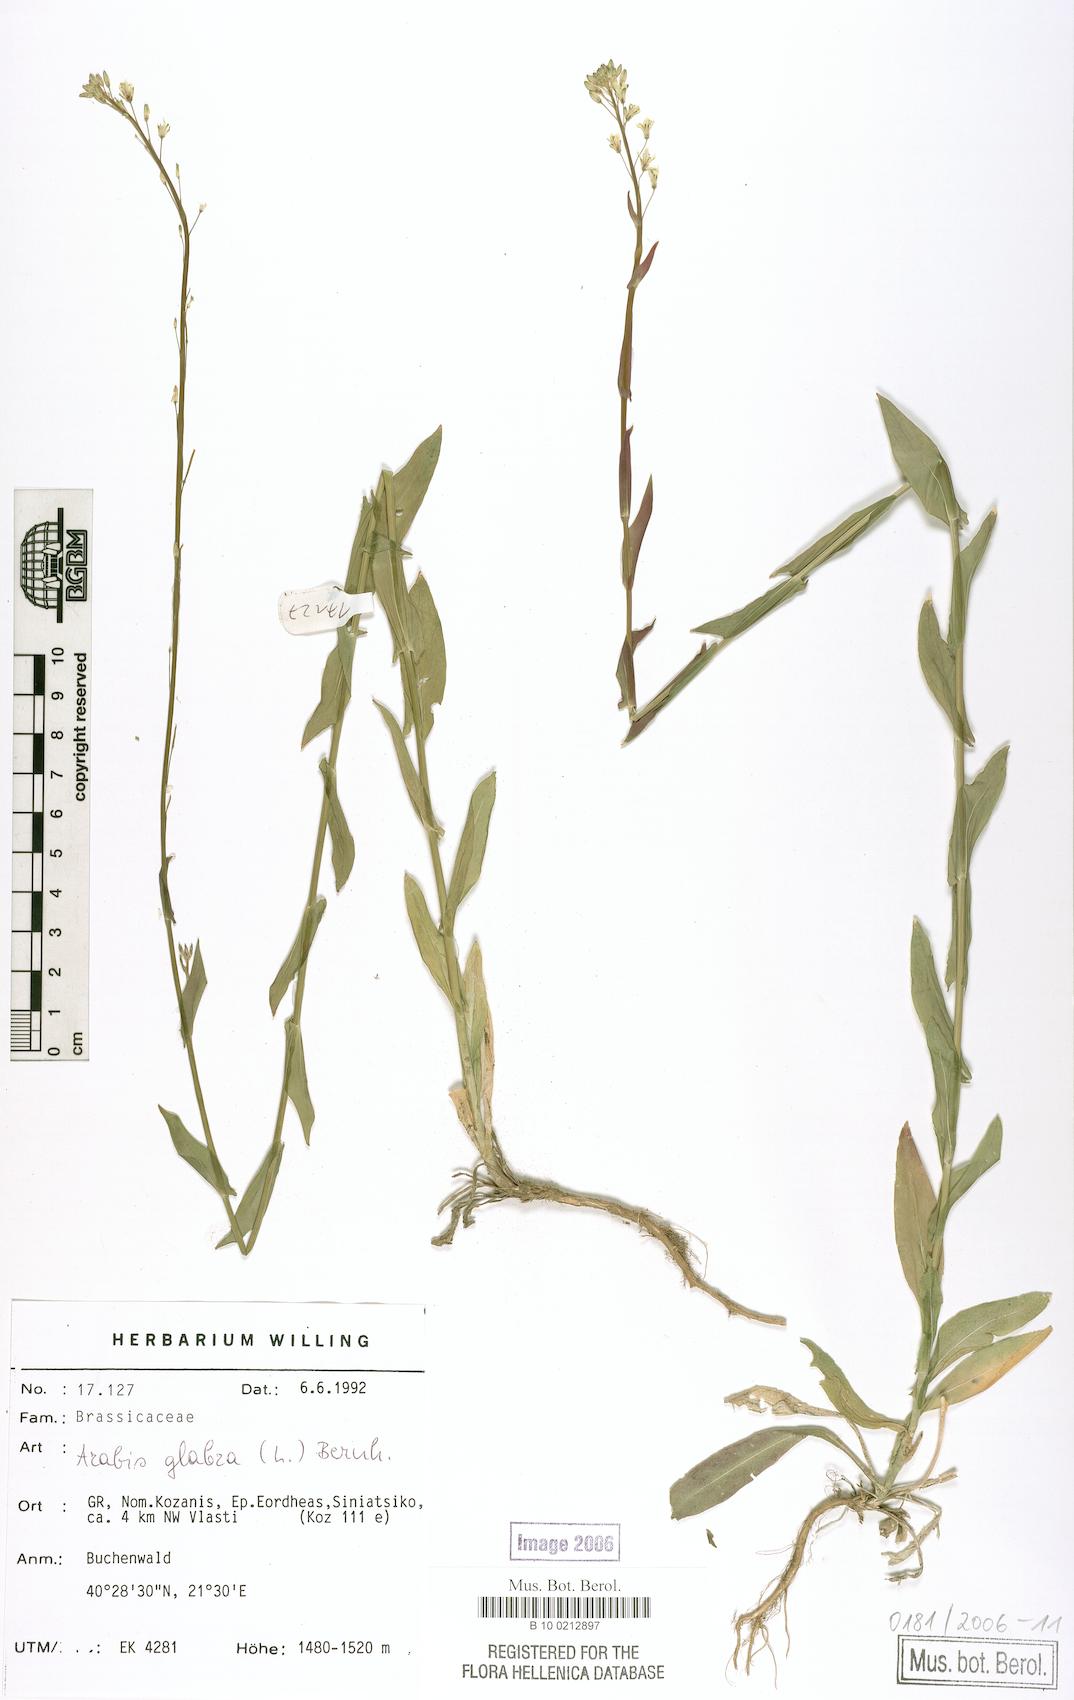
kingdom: Plantae
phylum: Tracheophyta
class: Magnoliopsida
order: Brassicales
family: Brassicaceae
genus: Turritis
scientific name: Turritis glabra
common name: Tower rockcress
